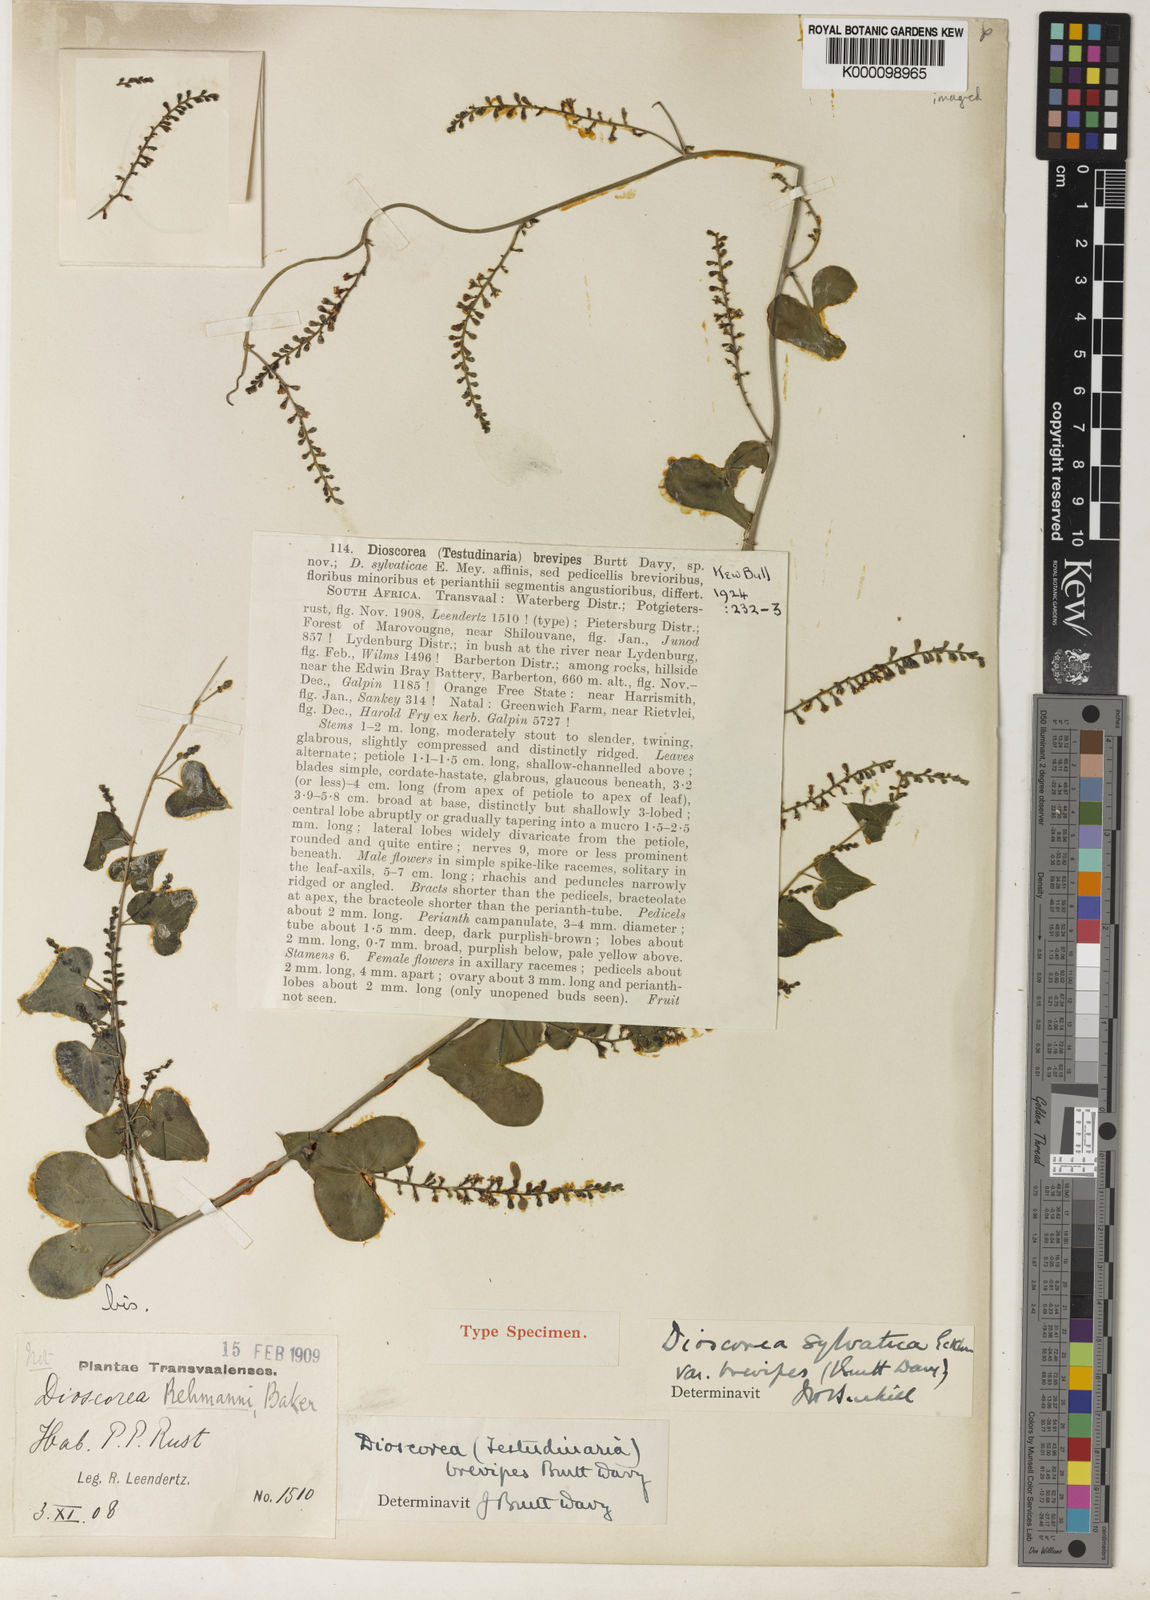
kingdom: Plantae
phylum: Tracheophyta
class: Liliopsida
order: Dioscoreales
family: Dioscoreaceae
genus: Dioscorea
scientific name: Dioscorea sylvatica
